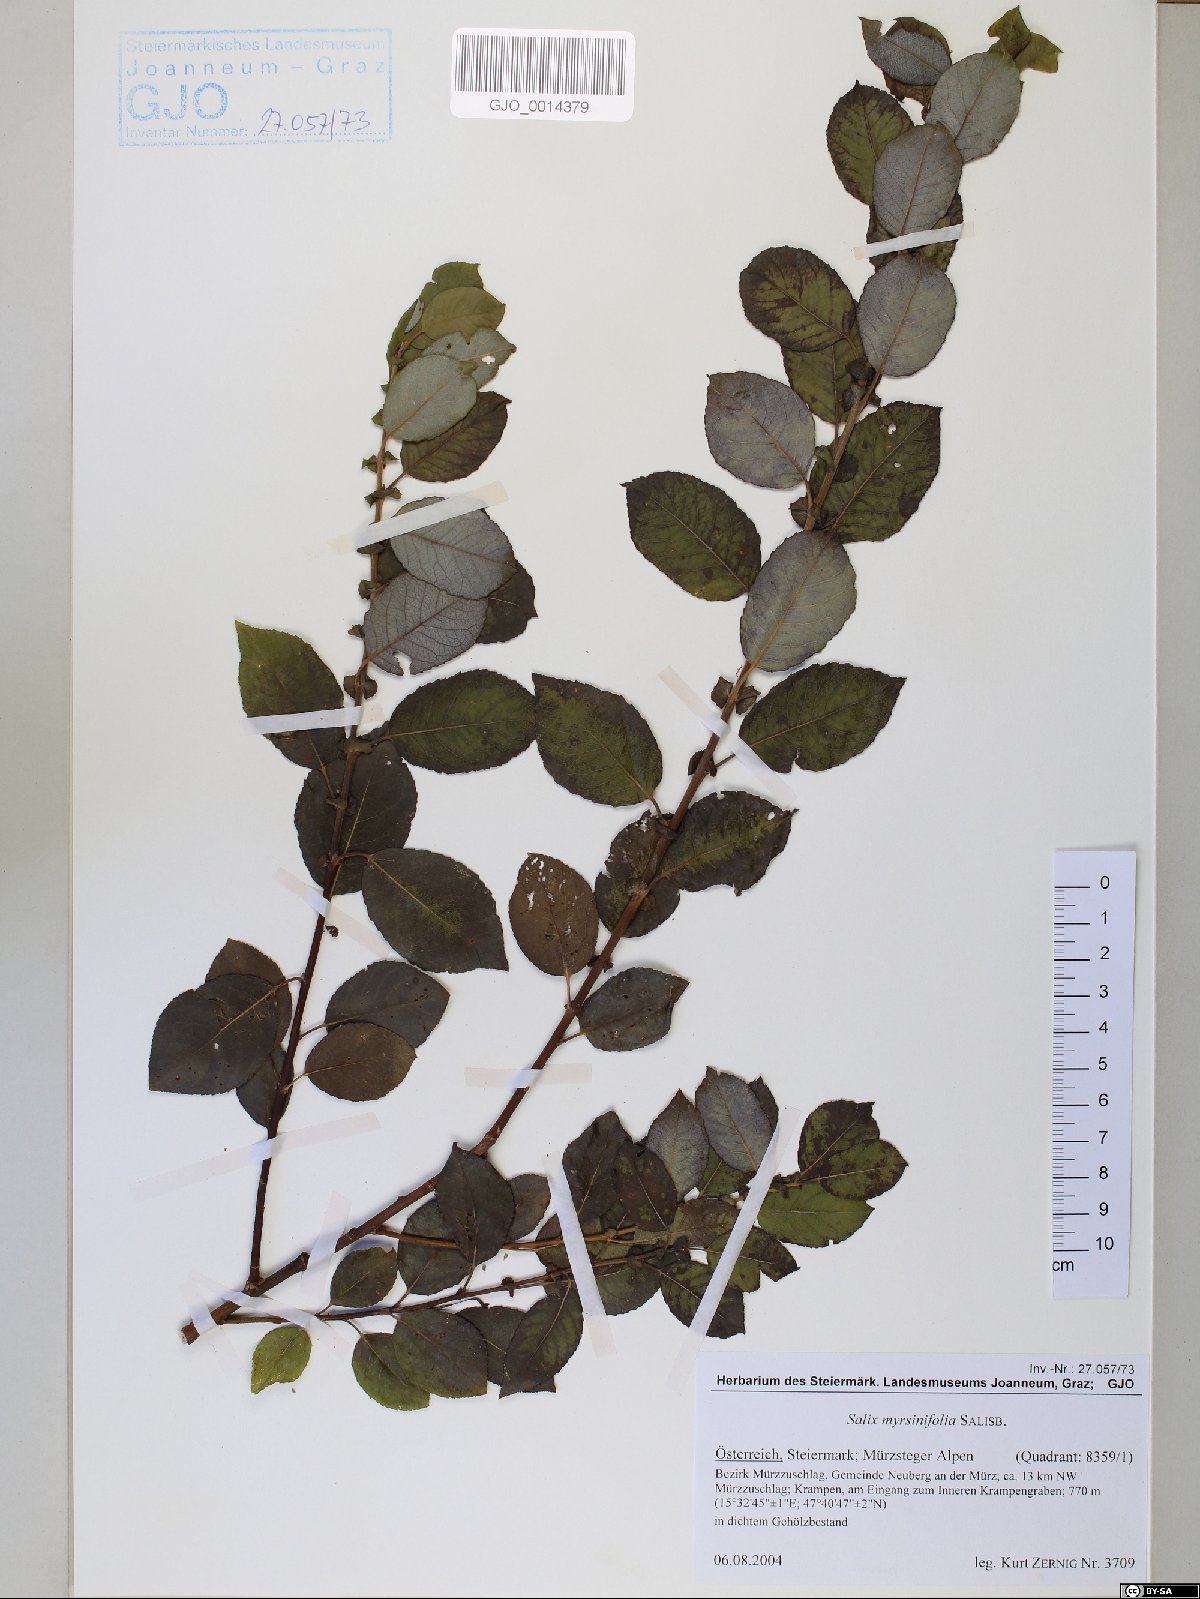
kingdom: Plantae
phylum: Tracheophyta
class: Magnoliopsida
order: Malpighiales
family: Salicaceae
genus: Salix
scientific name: Salix myrsinifolia
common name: Dark-leaved willow
